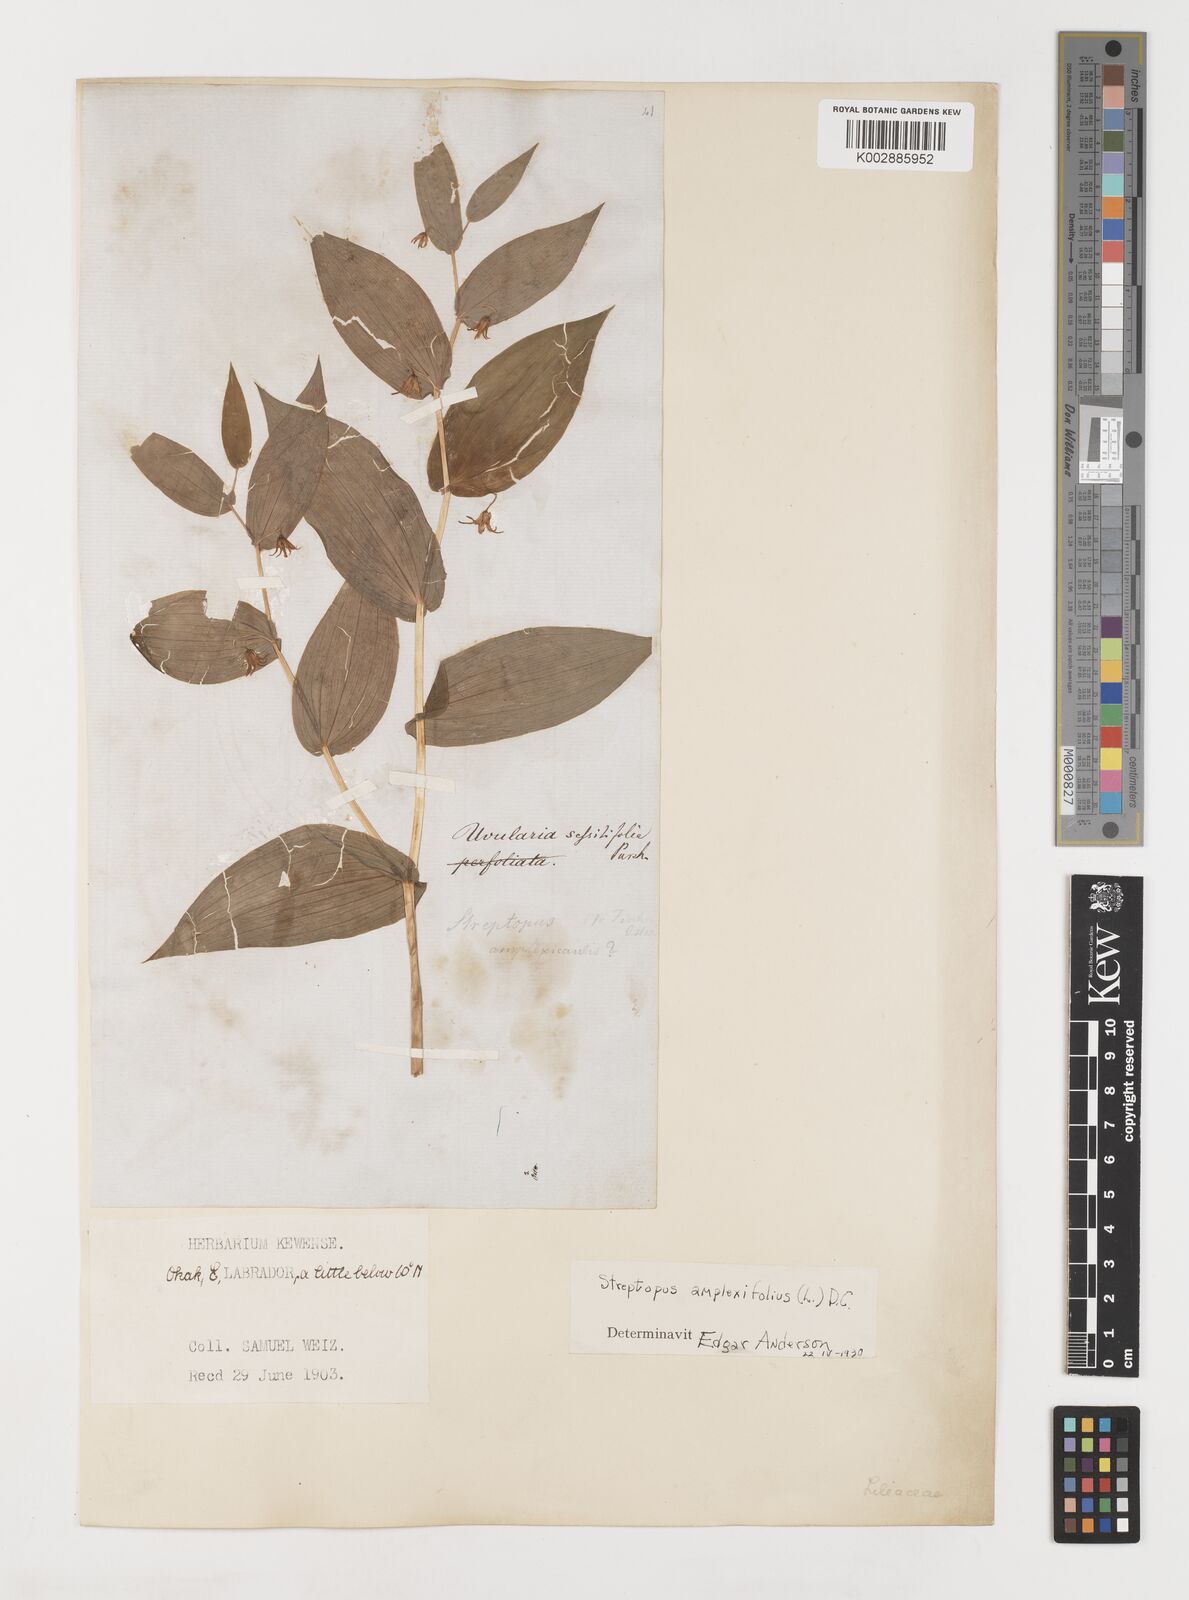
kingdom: Plantae
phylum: Tracheophyta
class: Liliopsida
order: Liliales
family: Liliaceae
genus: Streptopus
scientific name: Streptopus amplexifolius
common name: Clasp twisted stalk
